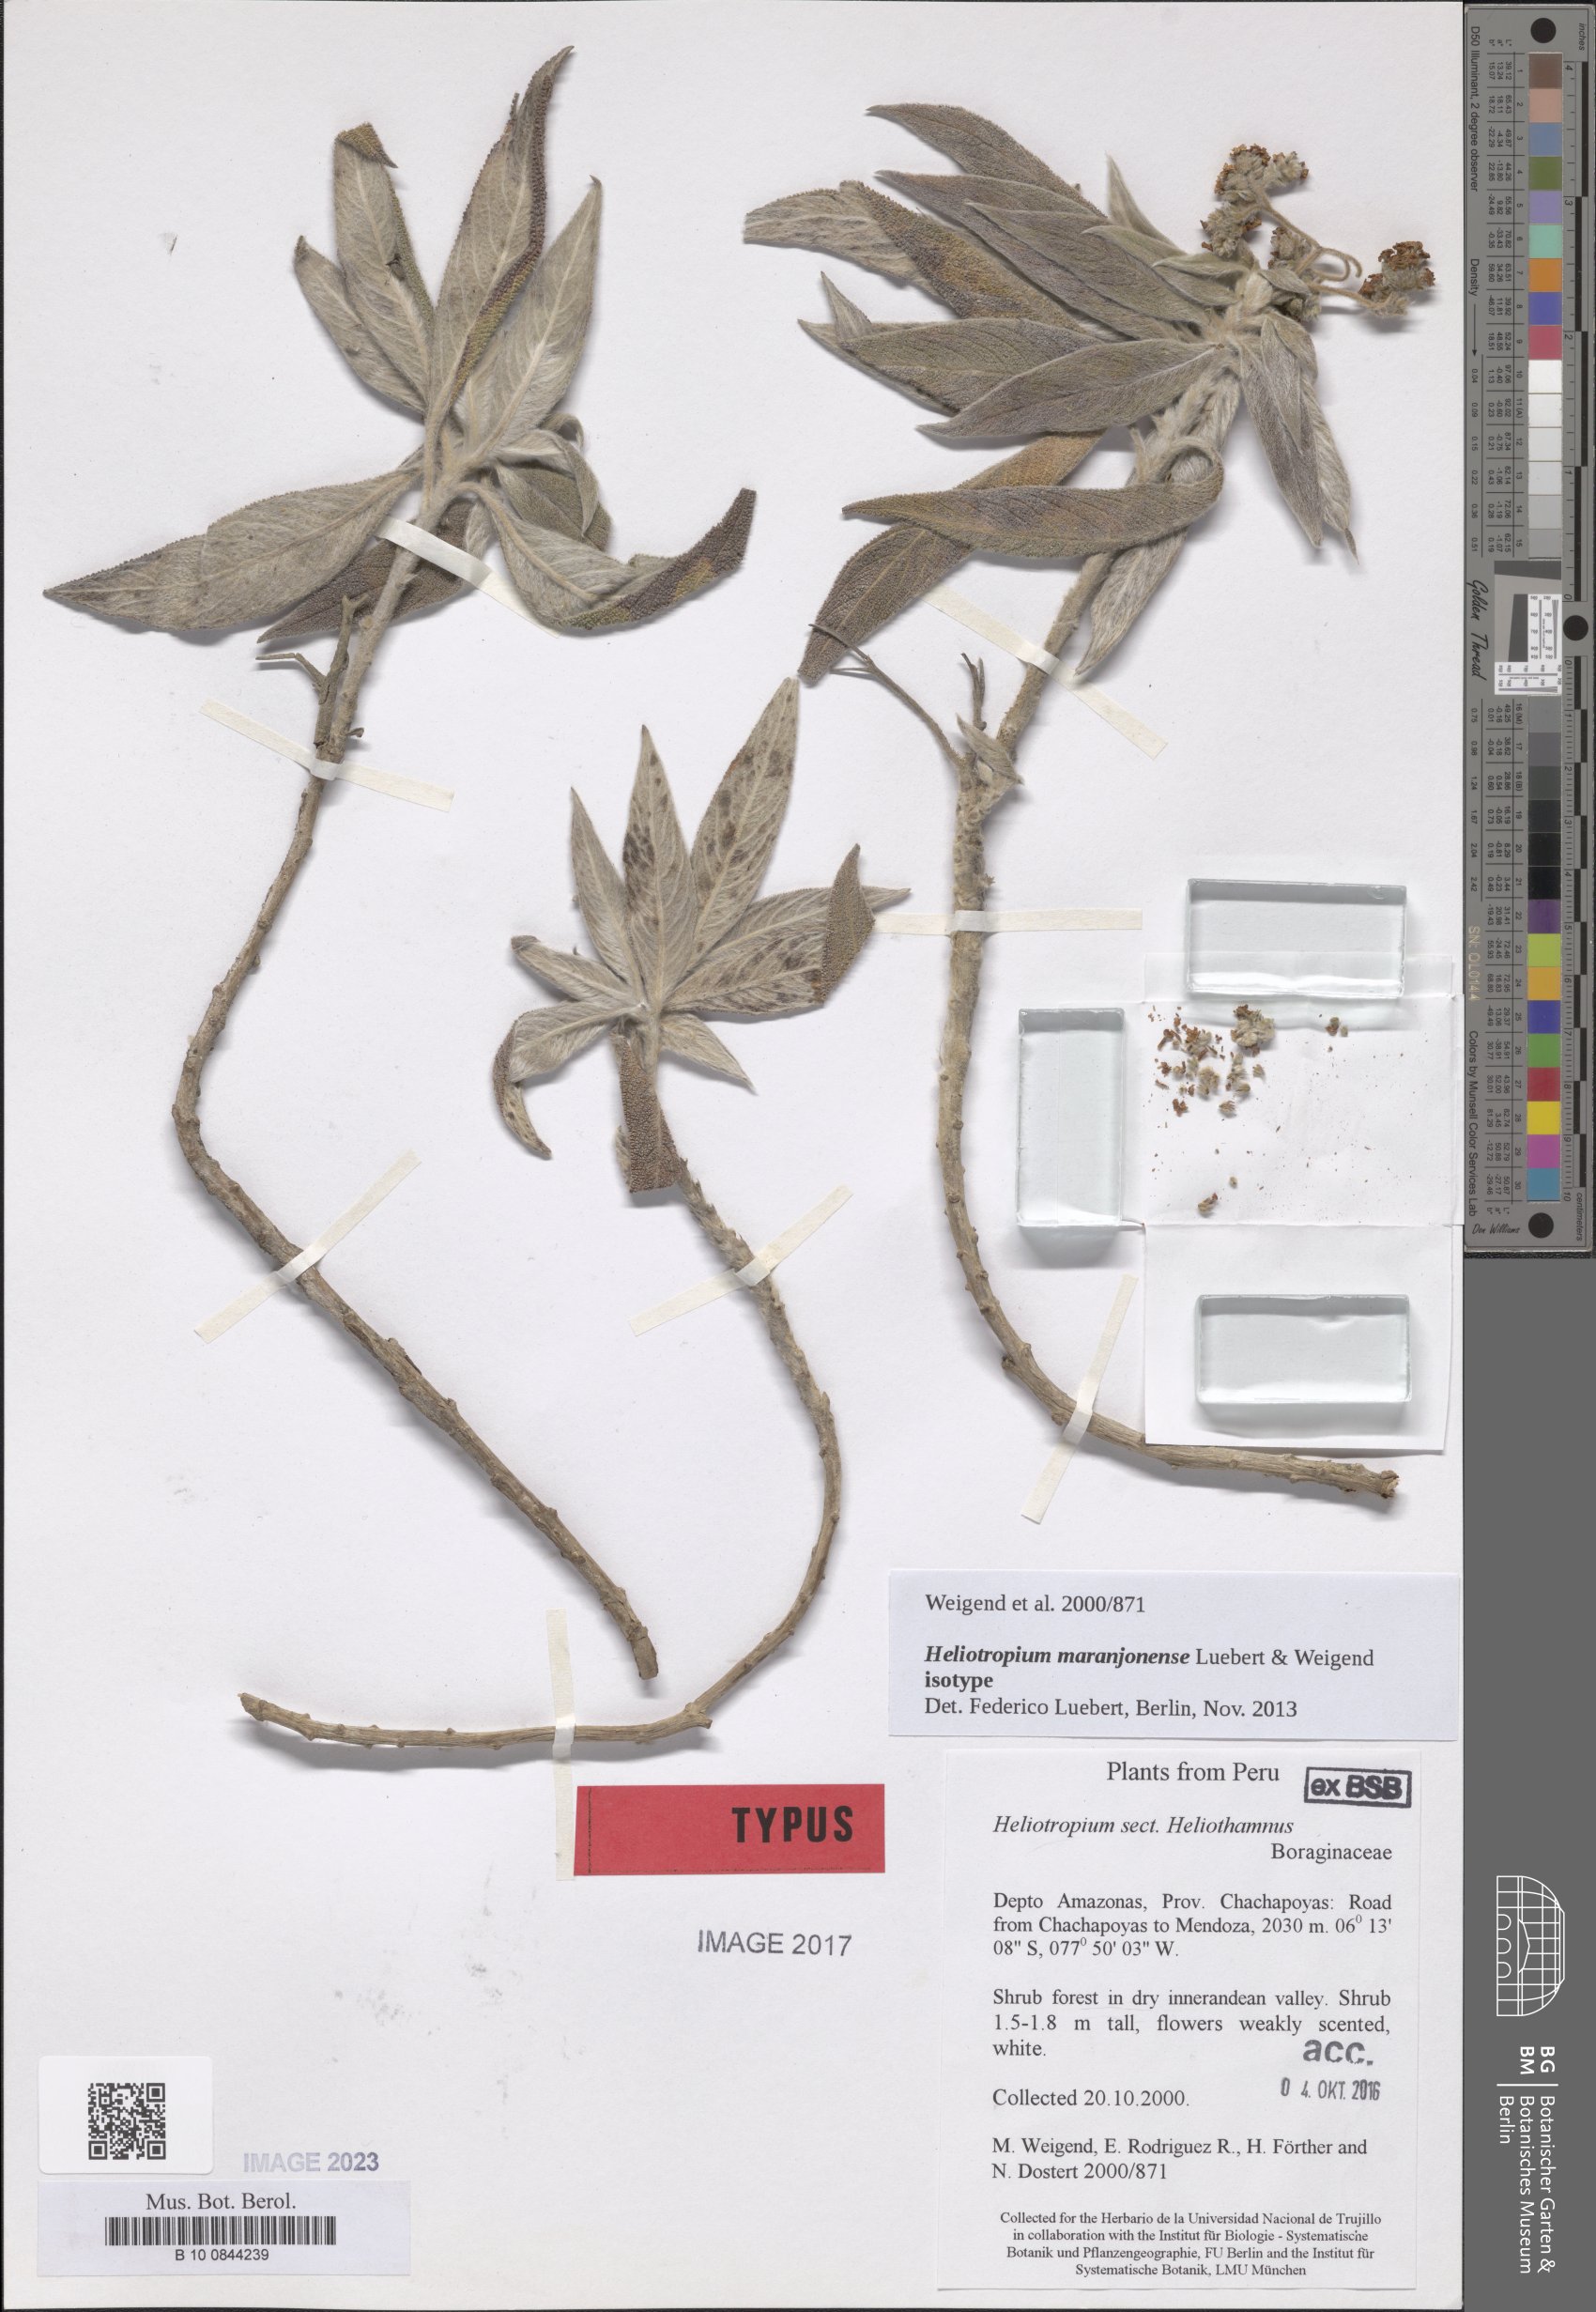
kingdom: Plantae
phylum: Tracheophyta
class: Magnoliopsida
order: Boraginales
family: Heliotropiaceae
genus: Heliotropium
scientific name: Heliotropium maranjonense
